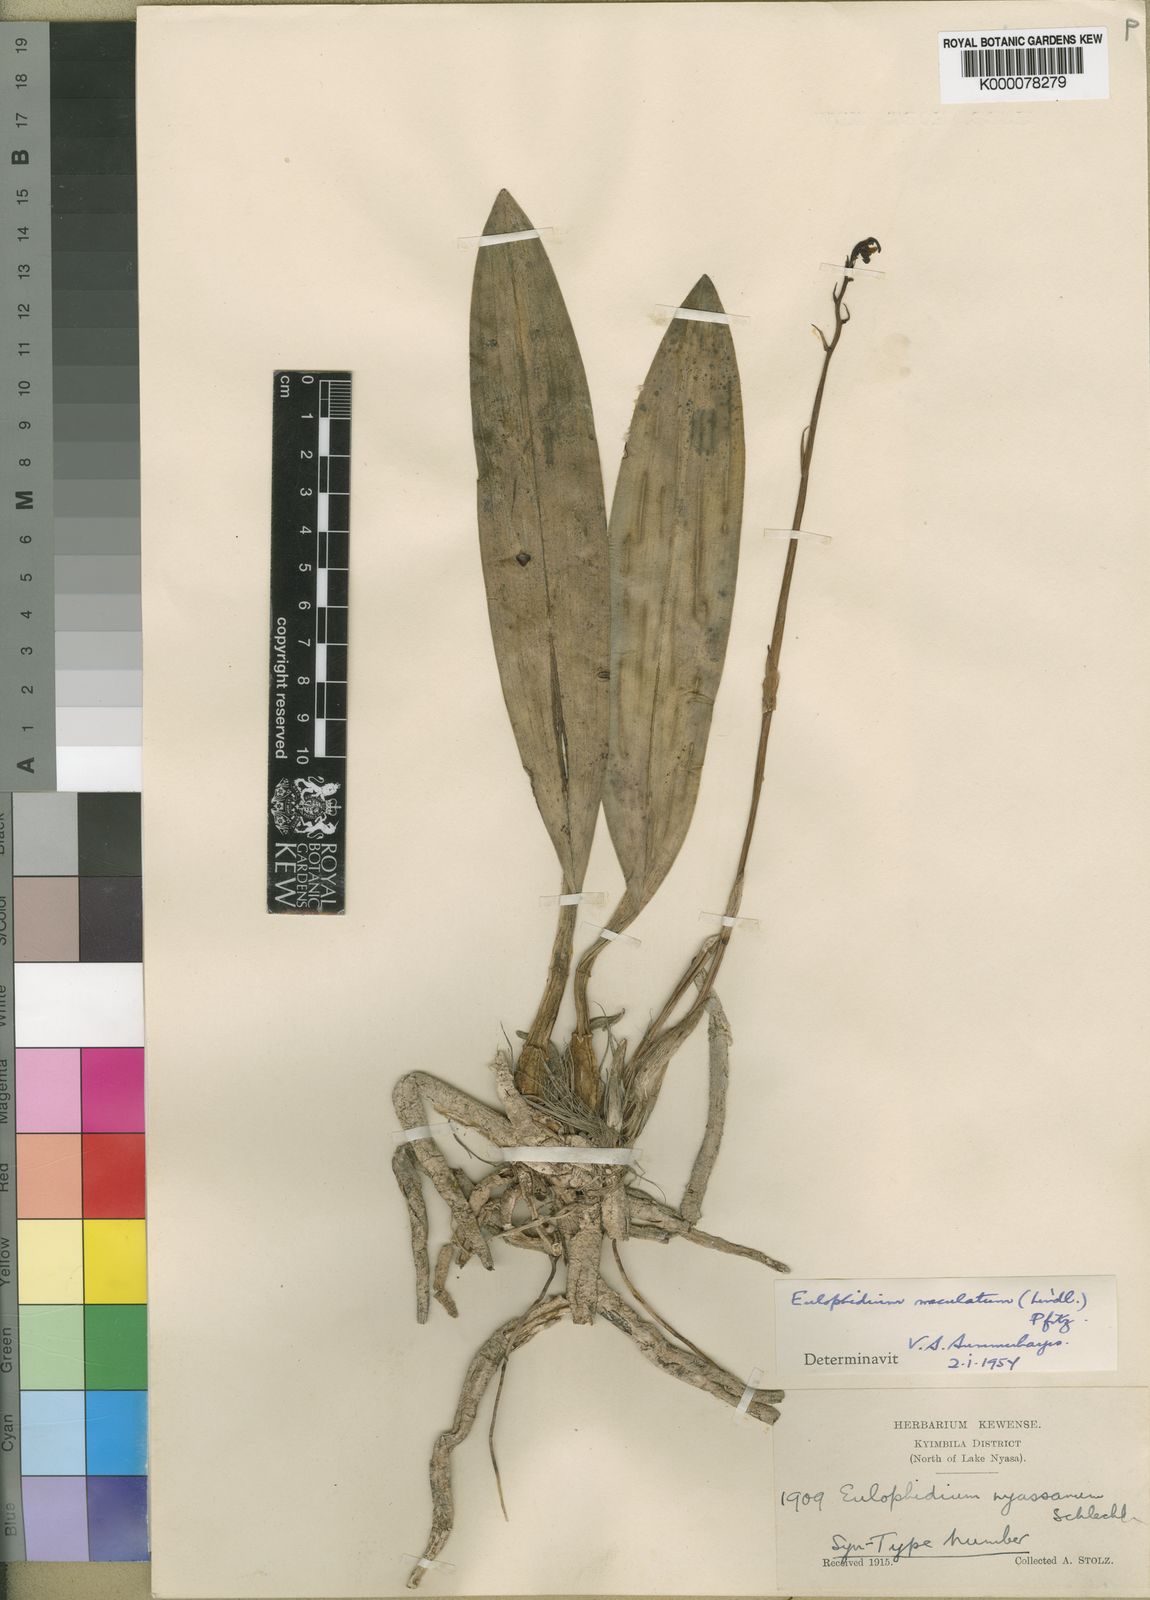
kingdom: Plantae
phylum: Tracheophyta
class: Liliopsida
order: Asparagales
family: Orchidaceae
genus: Eulophia
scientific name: Eulophia maculata
